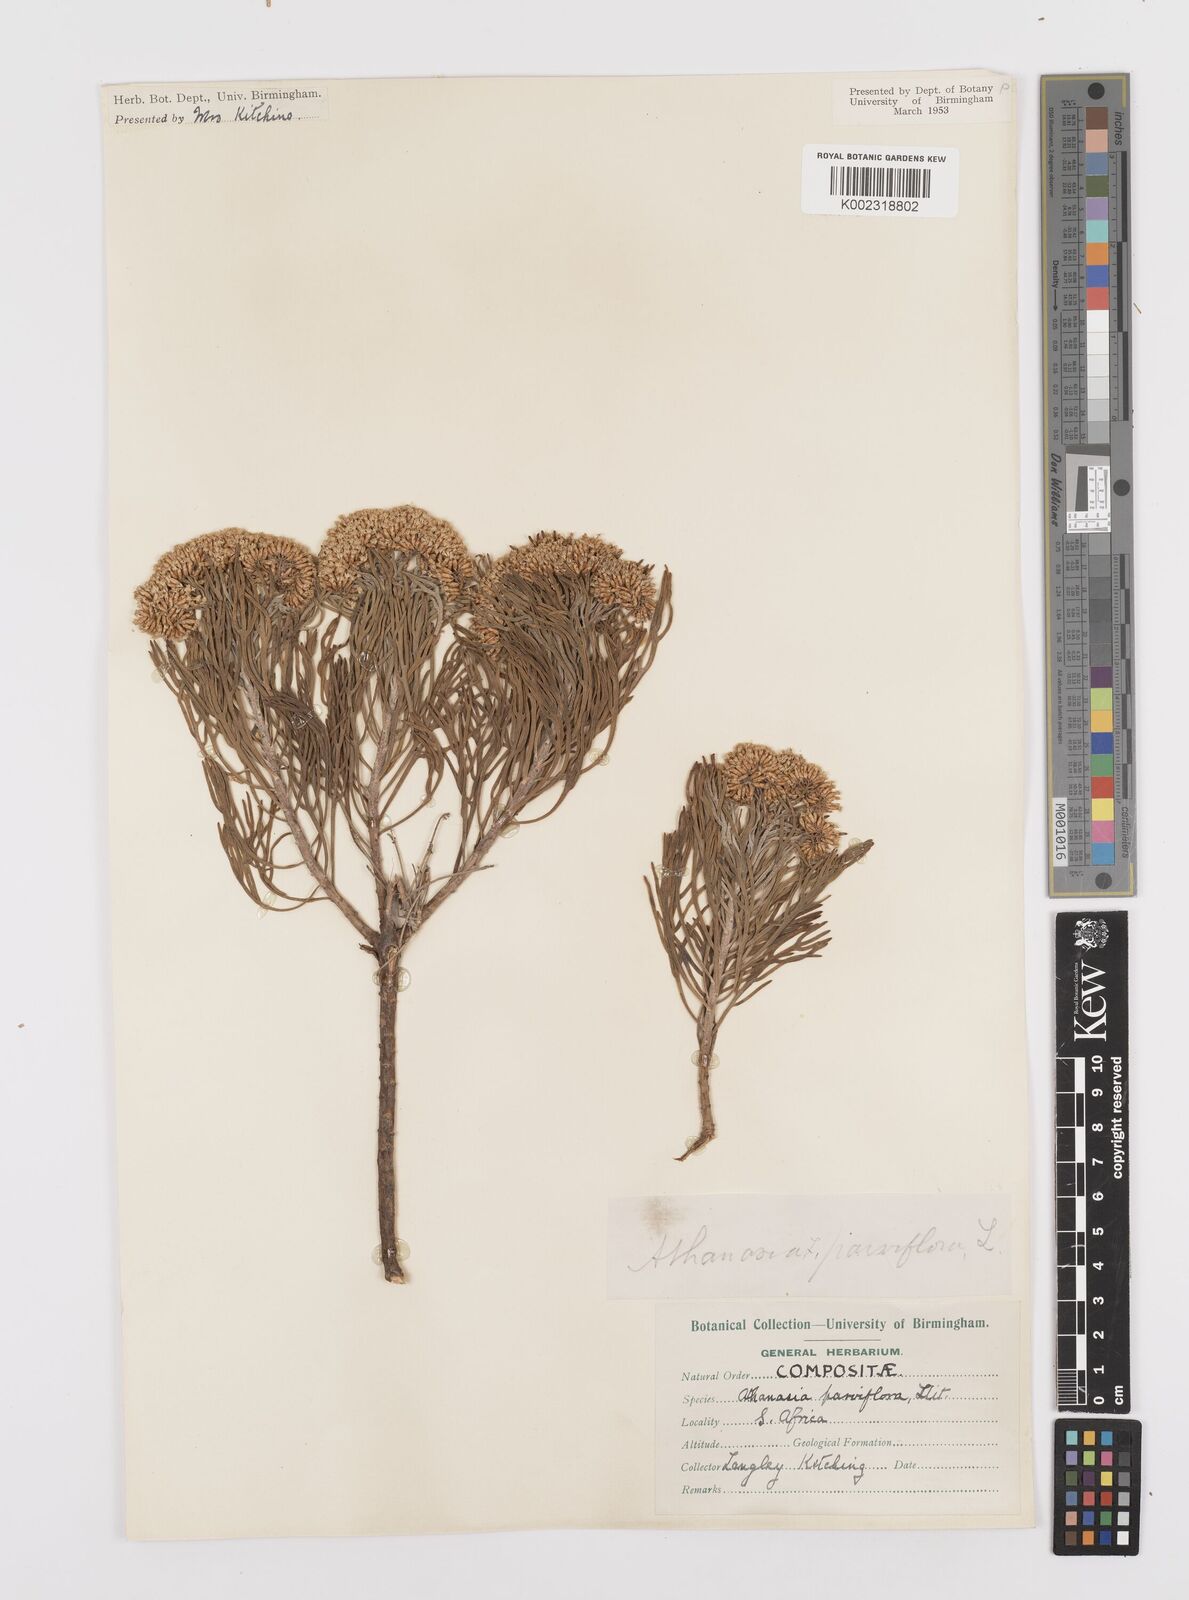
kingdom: Plantae
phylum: Tracheophyta
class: Magnoliopsida
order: Asterales
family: Asteraceae
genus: Hymenolepis
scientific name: Hymenolepis crithmifolia
